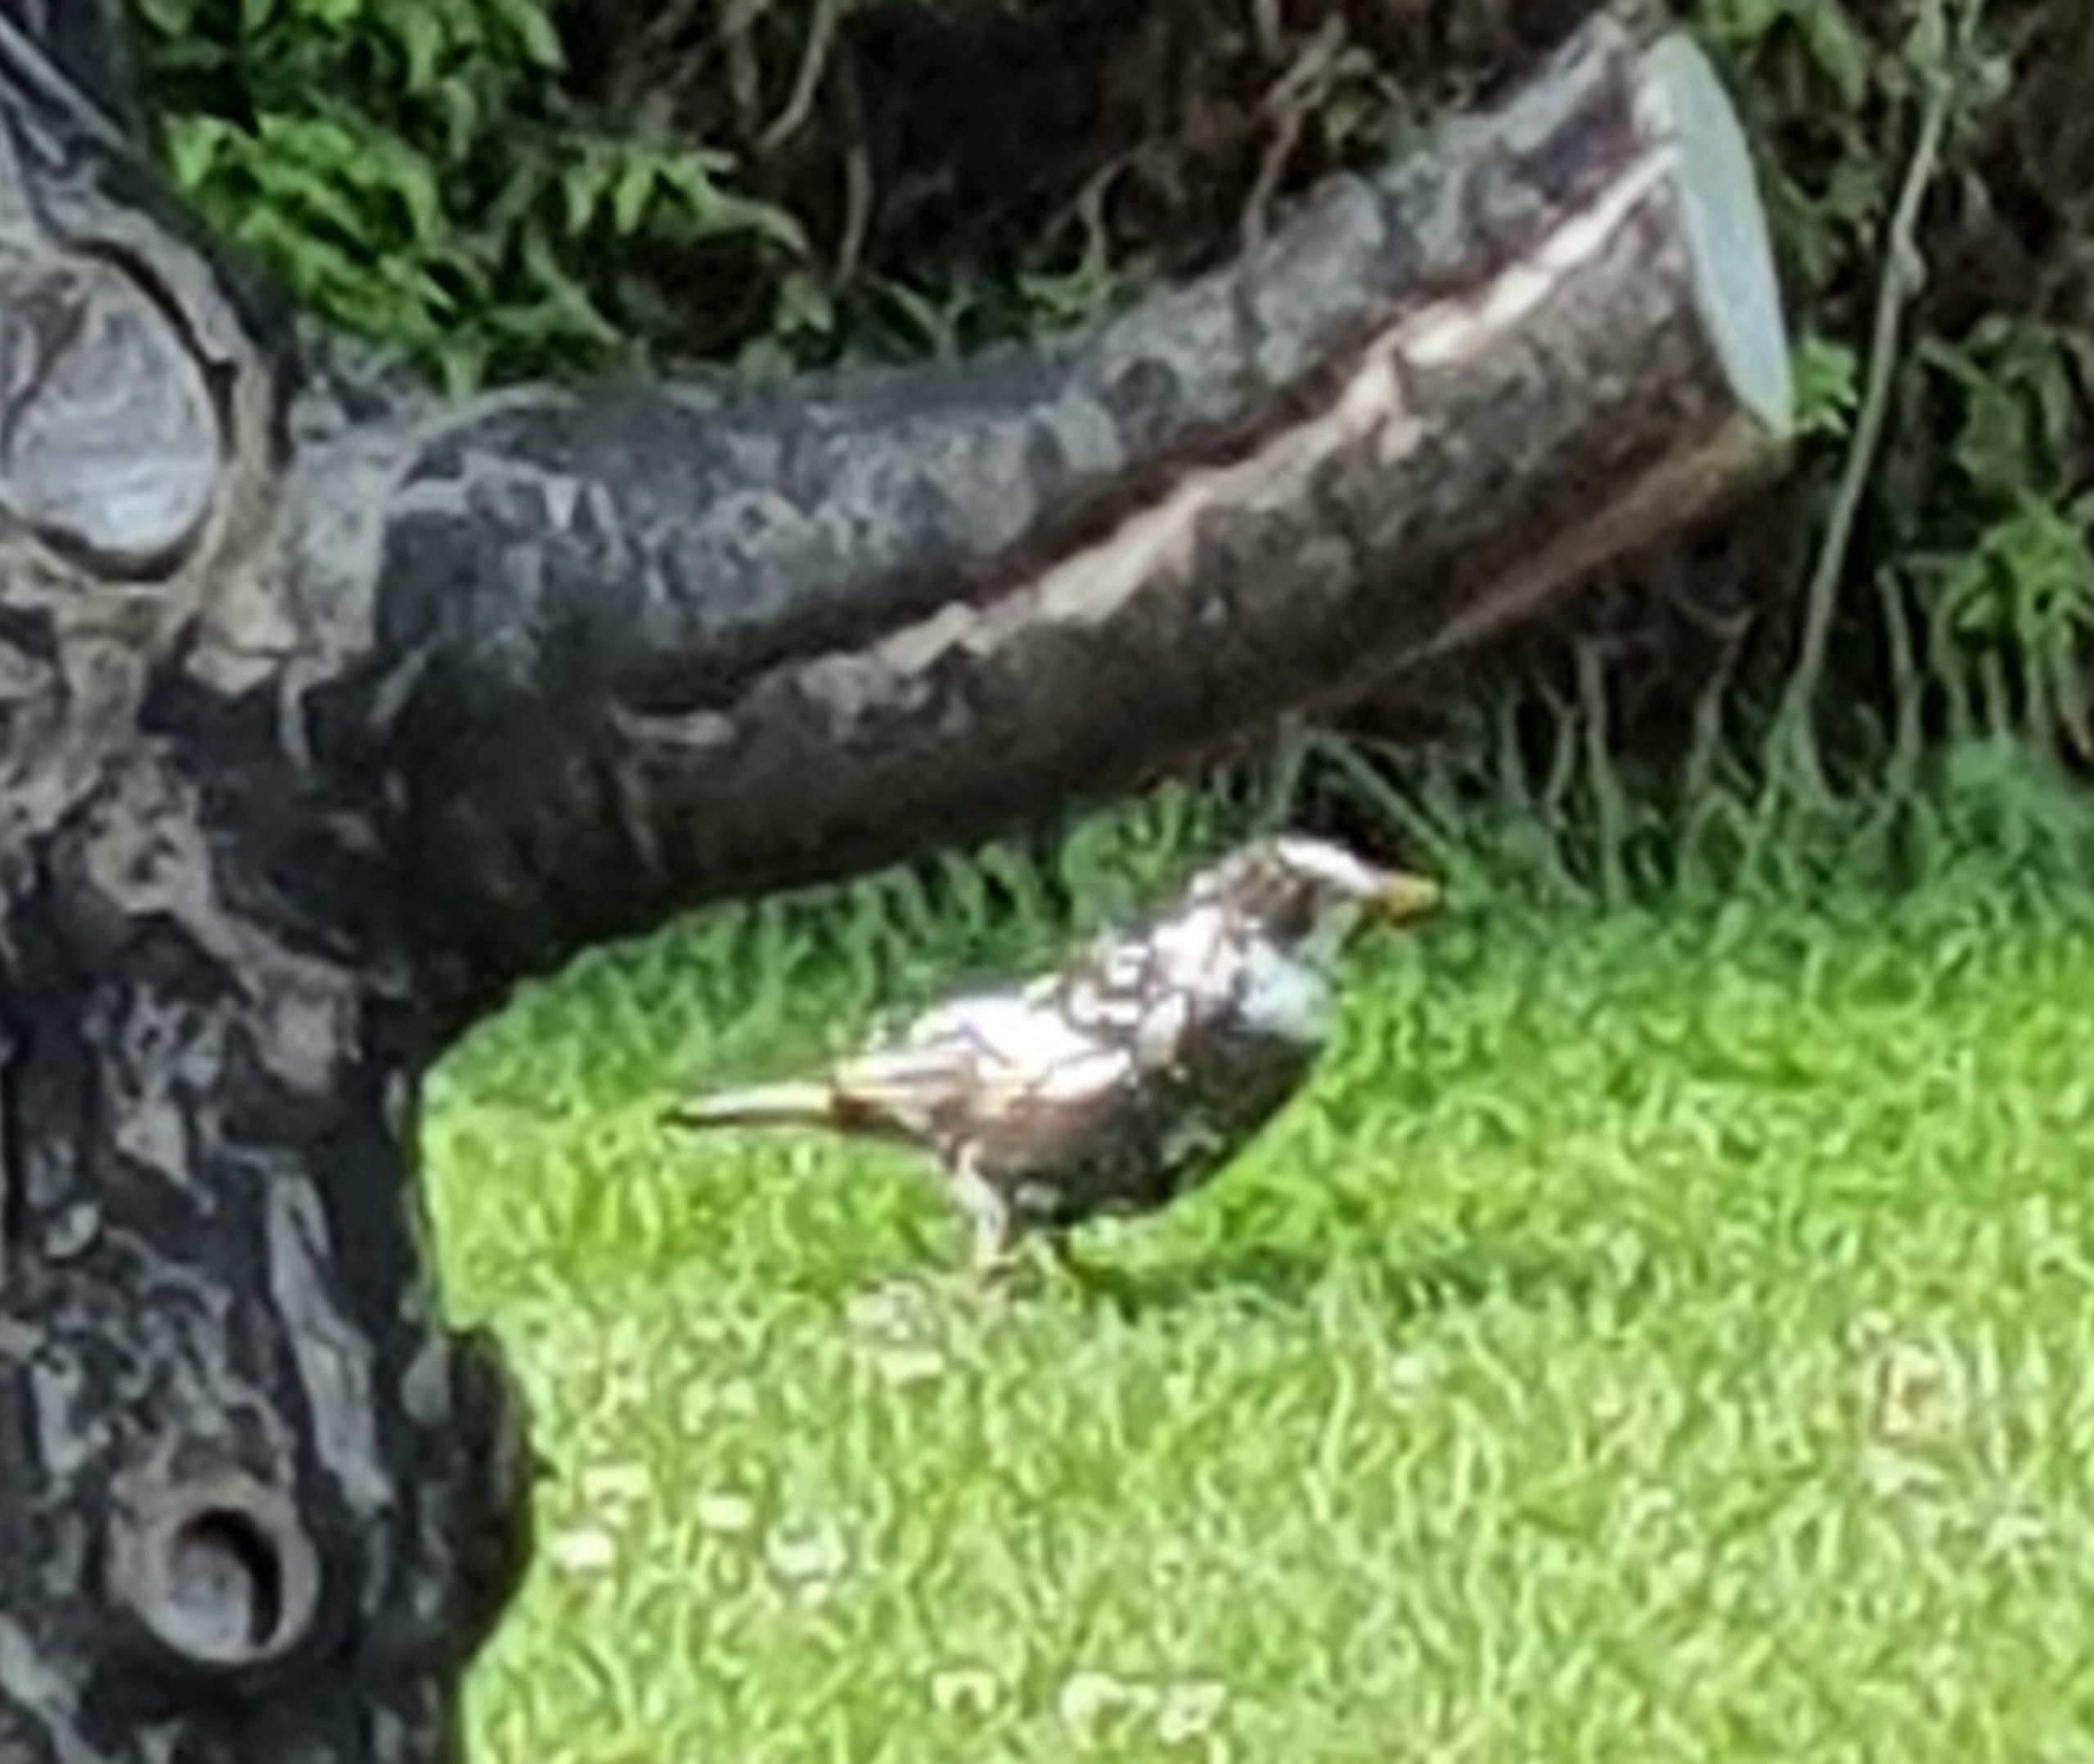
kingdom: Animalia
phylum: Chordata
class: Aves
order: Passeriformes
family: Turdidae
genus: Turdus
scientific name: Turdus merula
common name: Solsort
